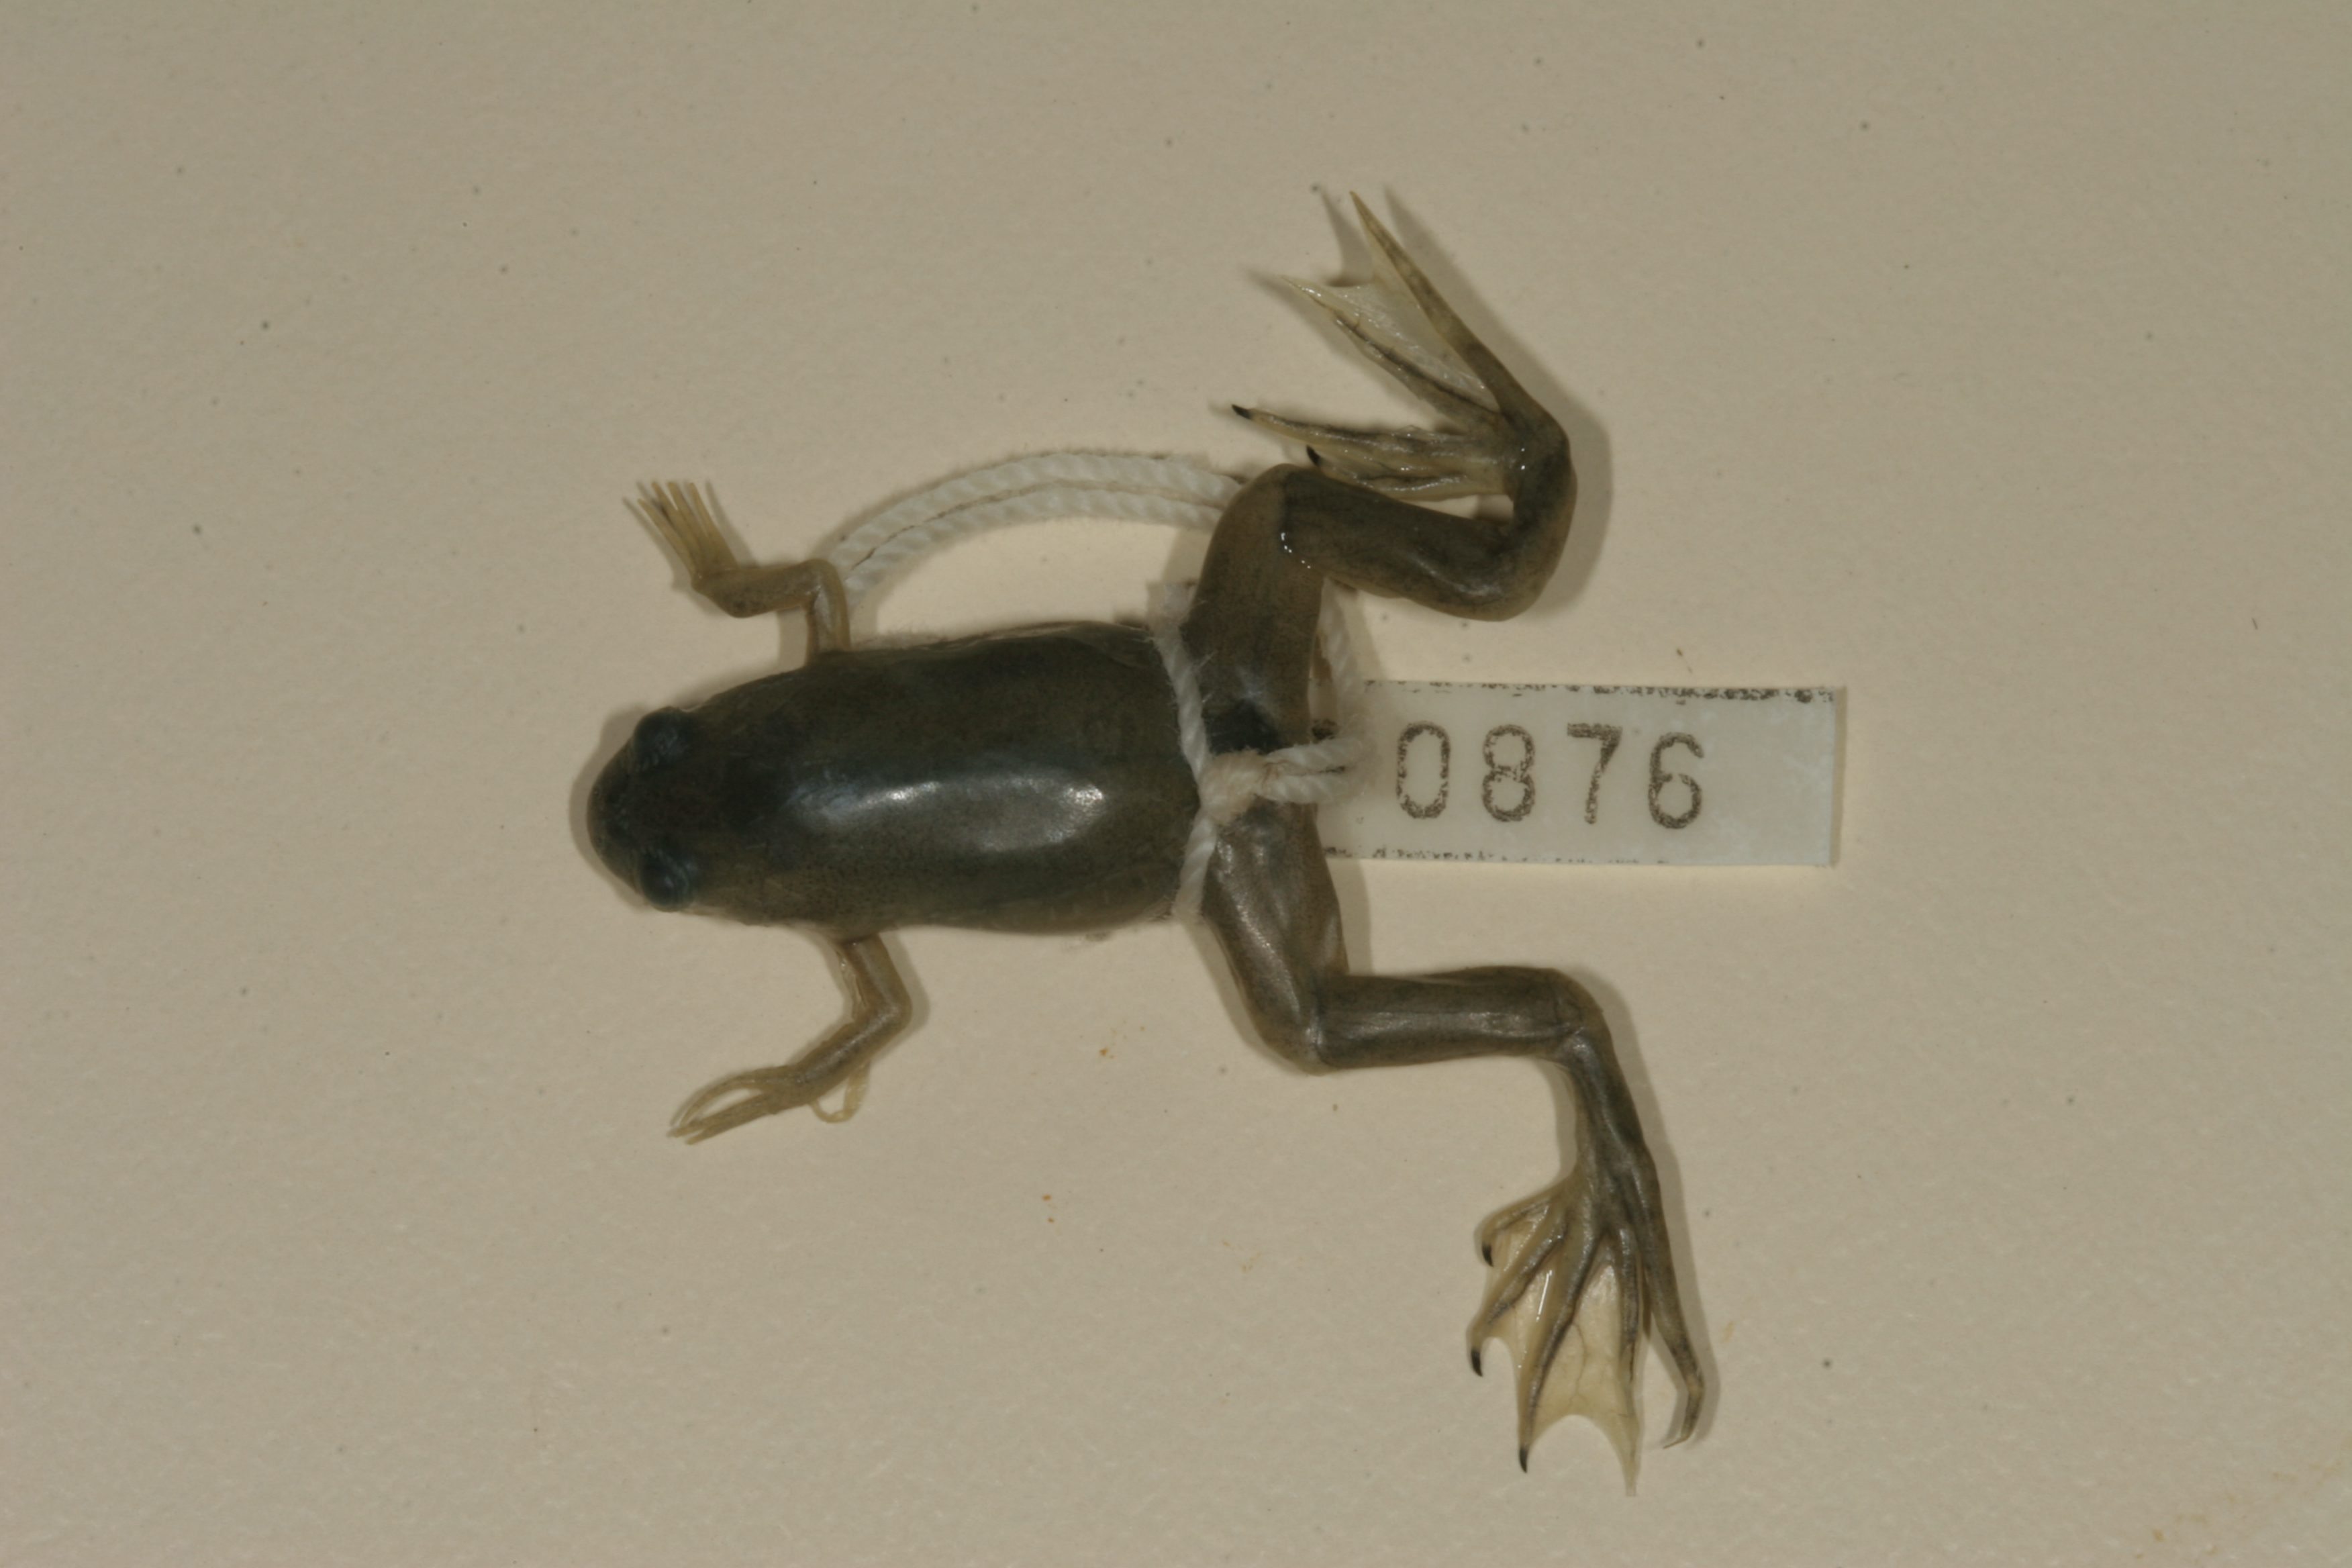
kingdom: Animalia
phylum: Chordata
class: Amphibia
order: Anura
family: Pipidae
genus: Xenopus
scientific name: Xenopus laevis
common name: African clawed frog
